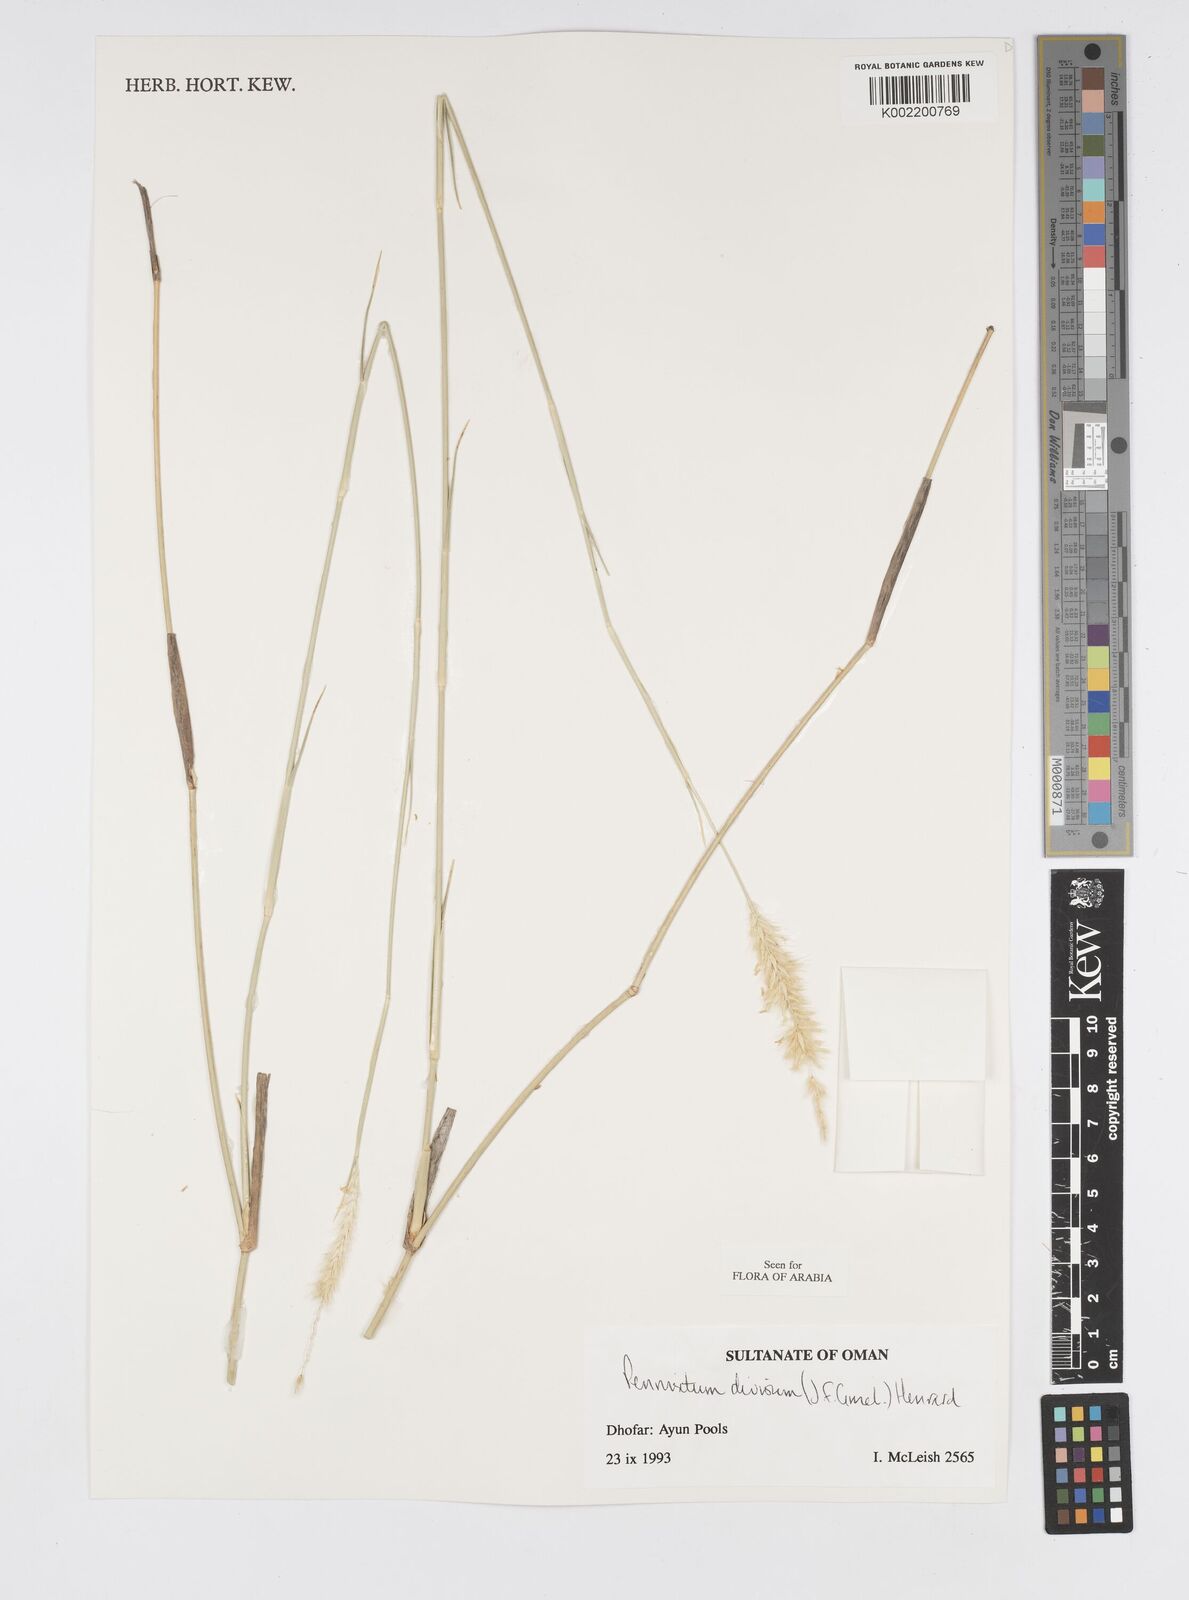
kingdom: Plantae
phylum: Tracheophyta
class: Liliopsida
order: Poales
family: Poaceae
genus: Cenchrus
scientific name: Cenchrus divisus
